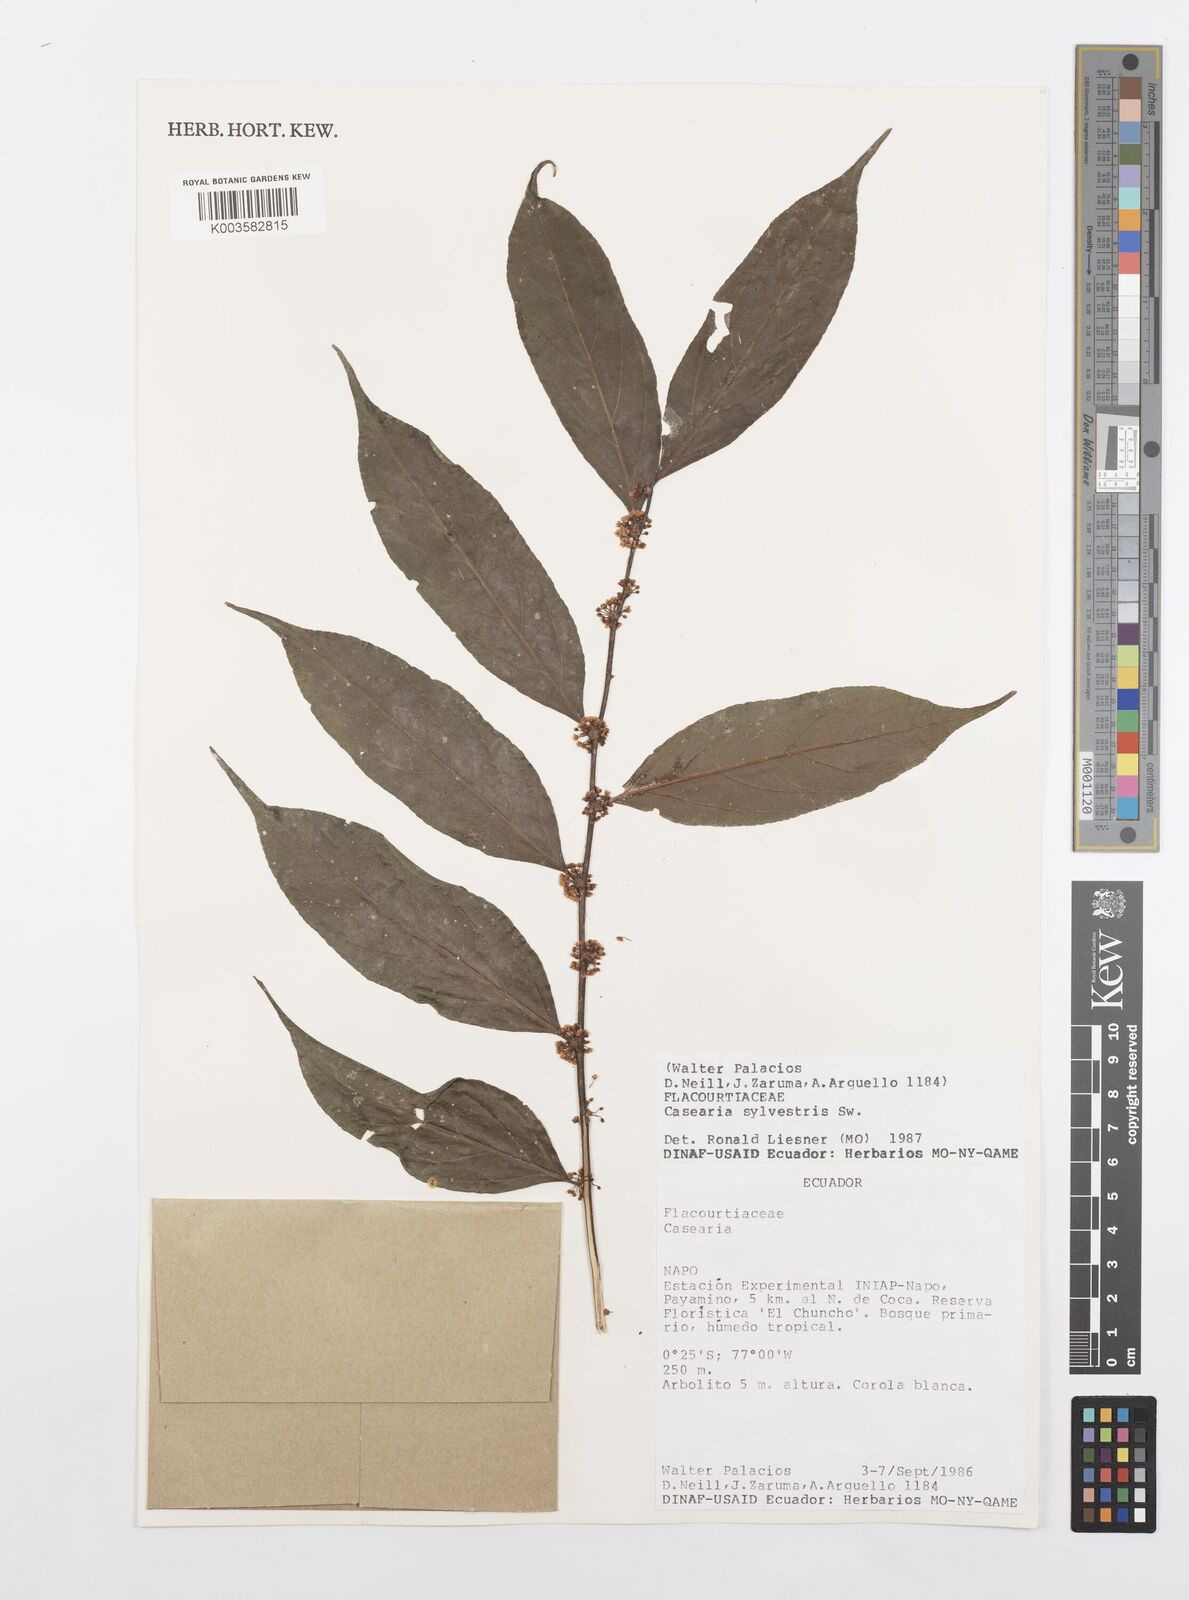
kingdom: Plantae
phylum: Tracheophyta
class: Magnoliopsida
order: Malpighiales
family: Salicaceae
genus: Casearia
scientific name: Casearia sylvestris
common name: Wild sage
